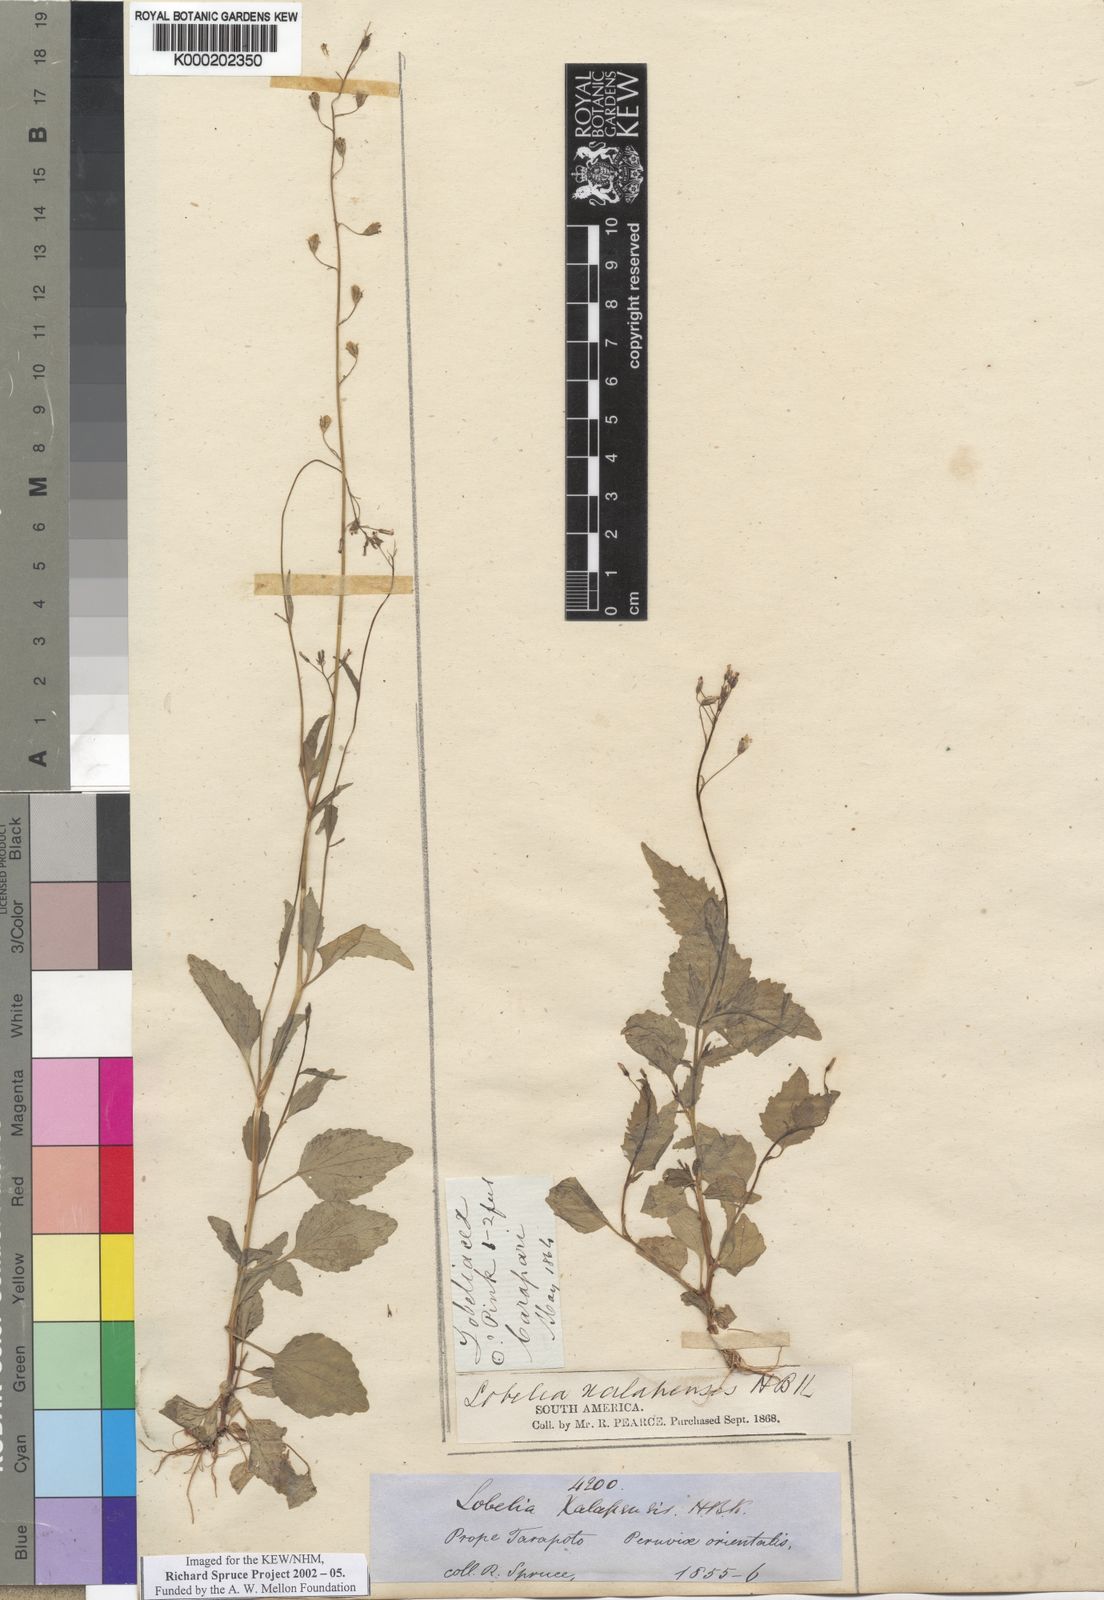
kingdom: Plantae
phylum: Tracheophyta
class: Magnoliopsida
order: Asterales
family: Campanulaceae
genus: Lobelia
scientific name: Lobelia xalapensis
